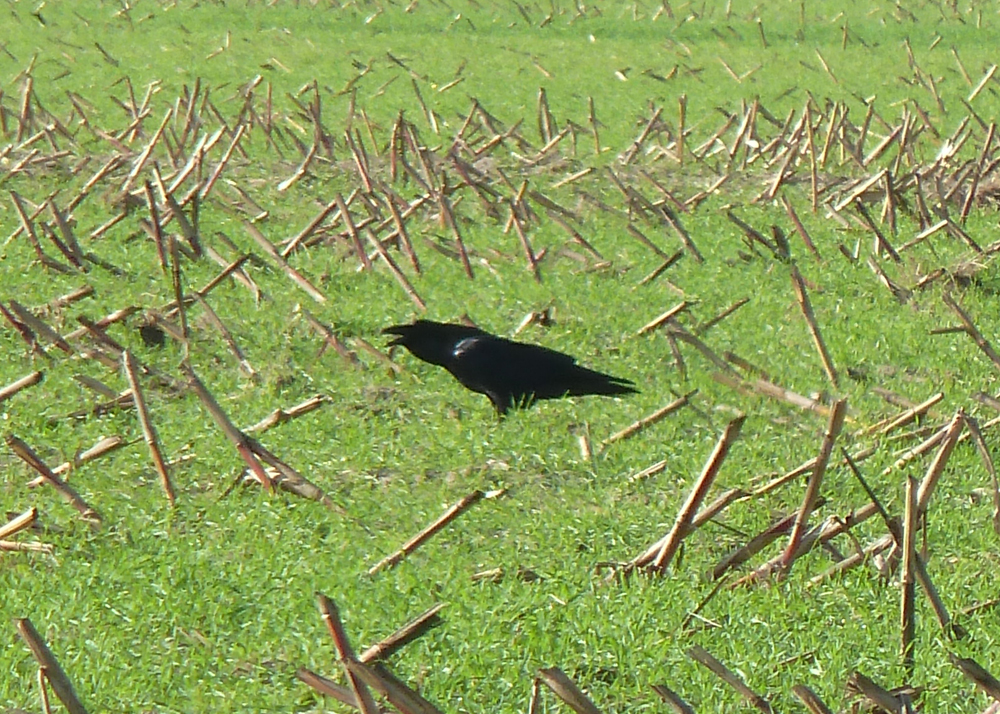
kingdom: Animalia
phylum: Chordata
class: Aves
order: Passeriformes
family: Corvidae
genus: Corvus
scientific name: Corvus corax
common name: Common raven
